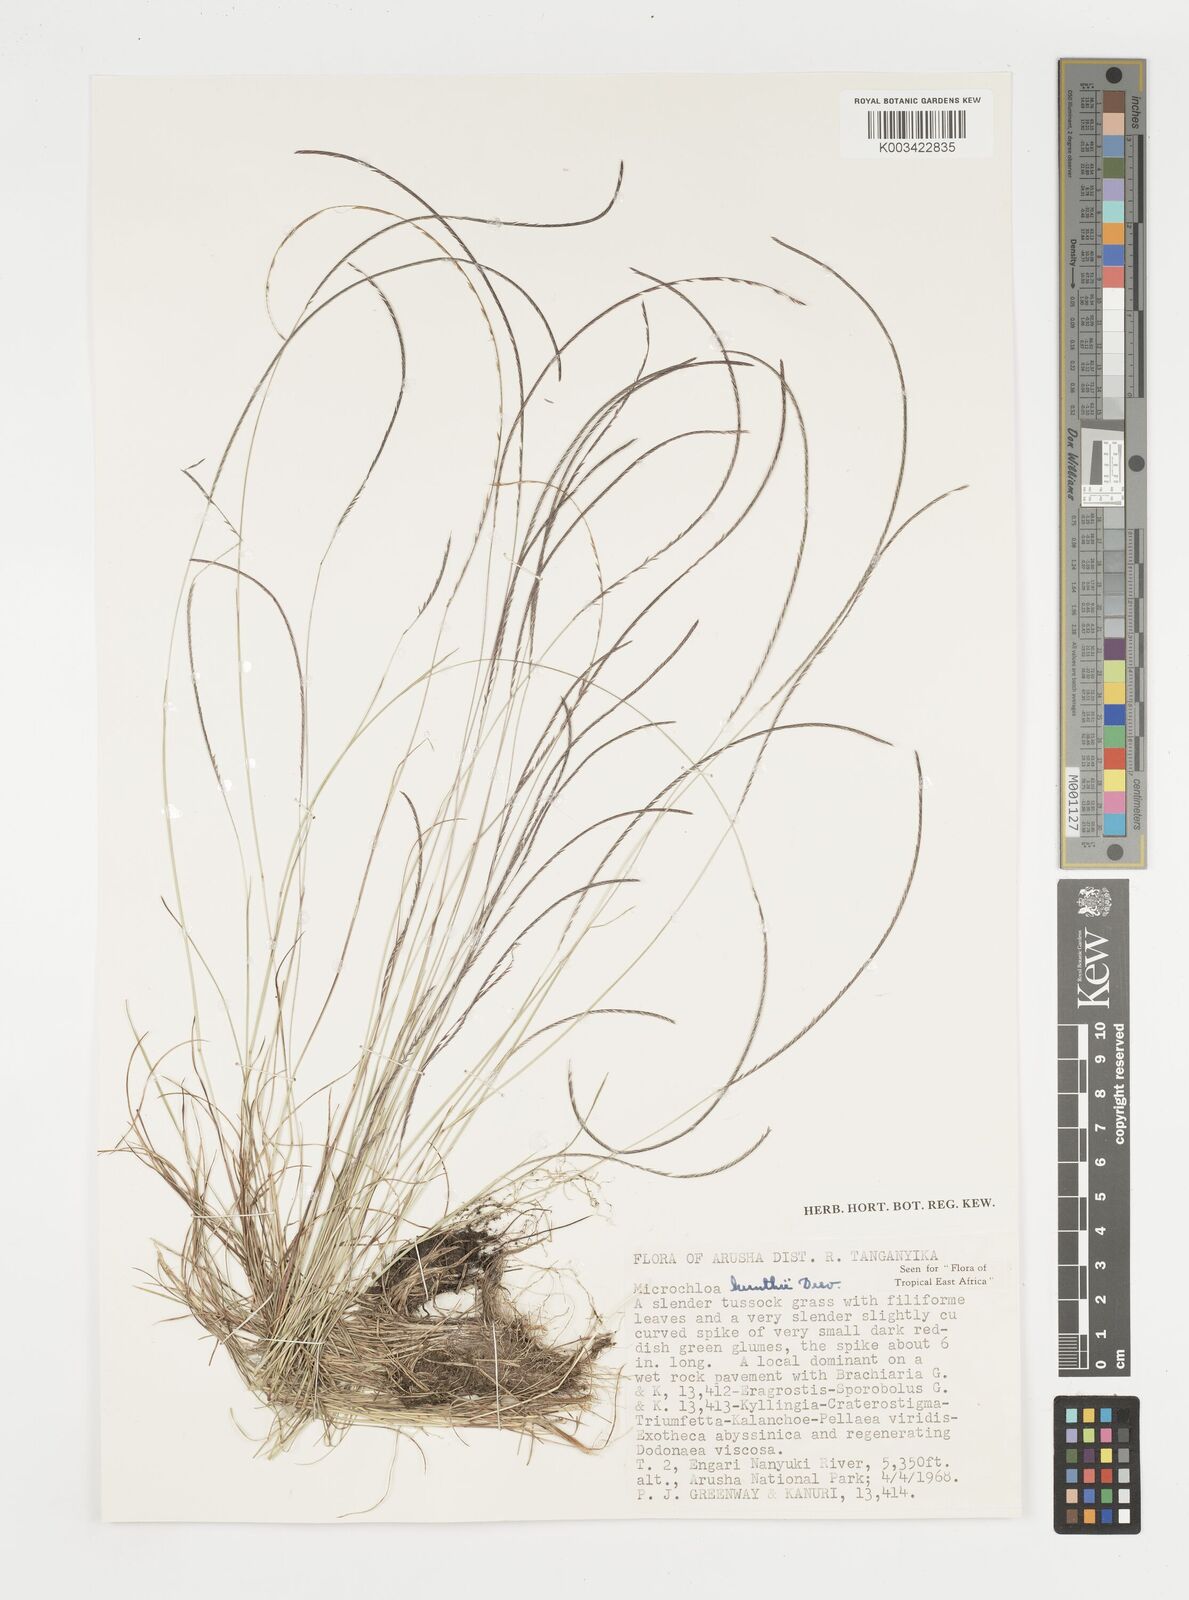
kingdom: Plantae
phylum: Tracheophyta
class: Liliopsida
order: Poales
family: Poaceae
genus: Microchloa
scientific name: Microchloa kunthii
